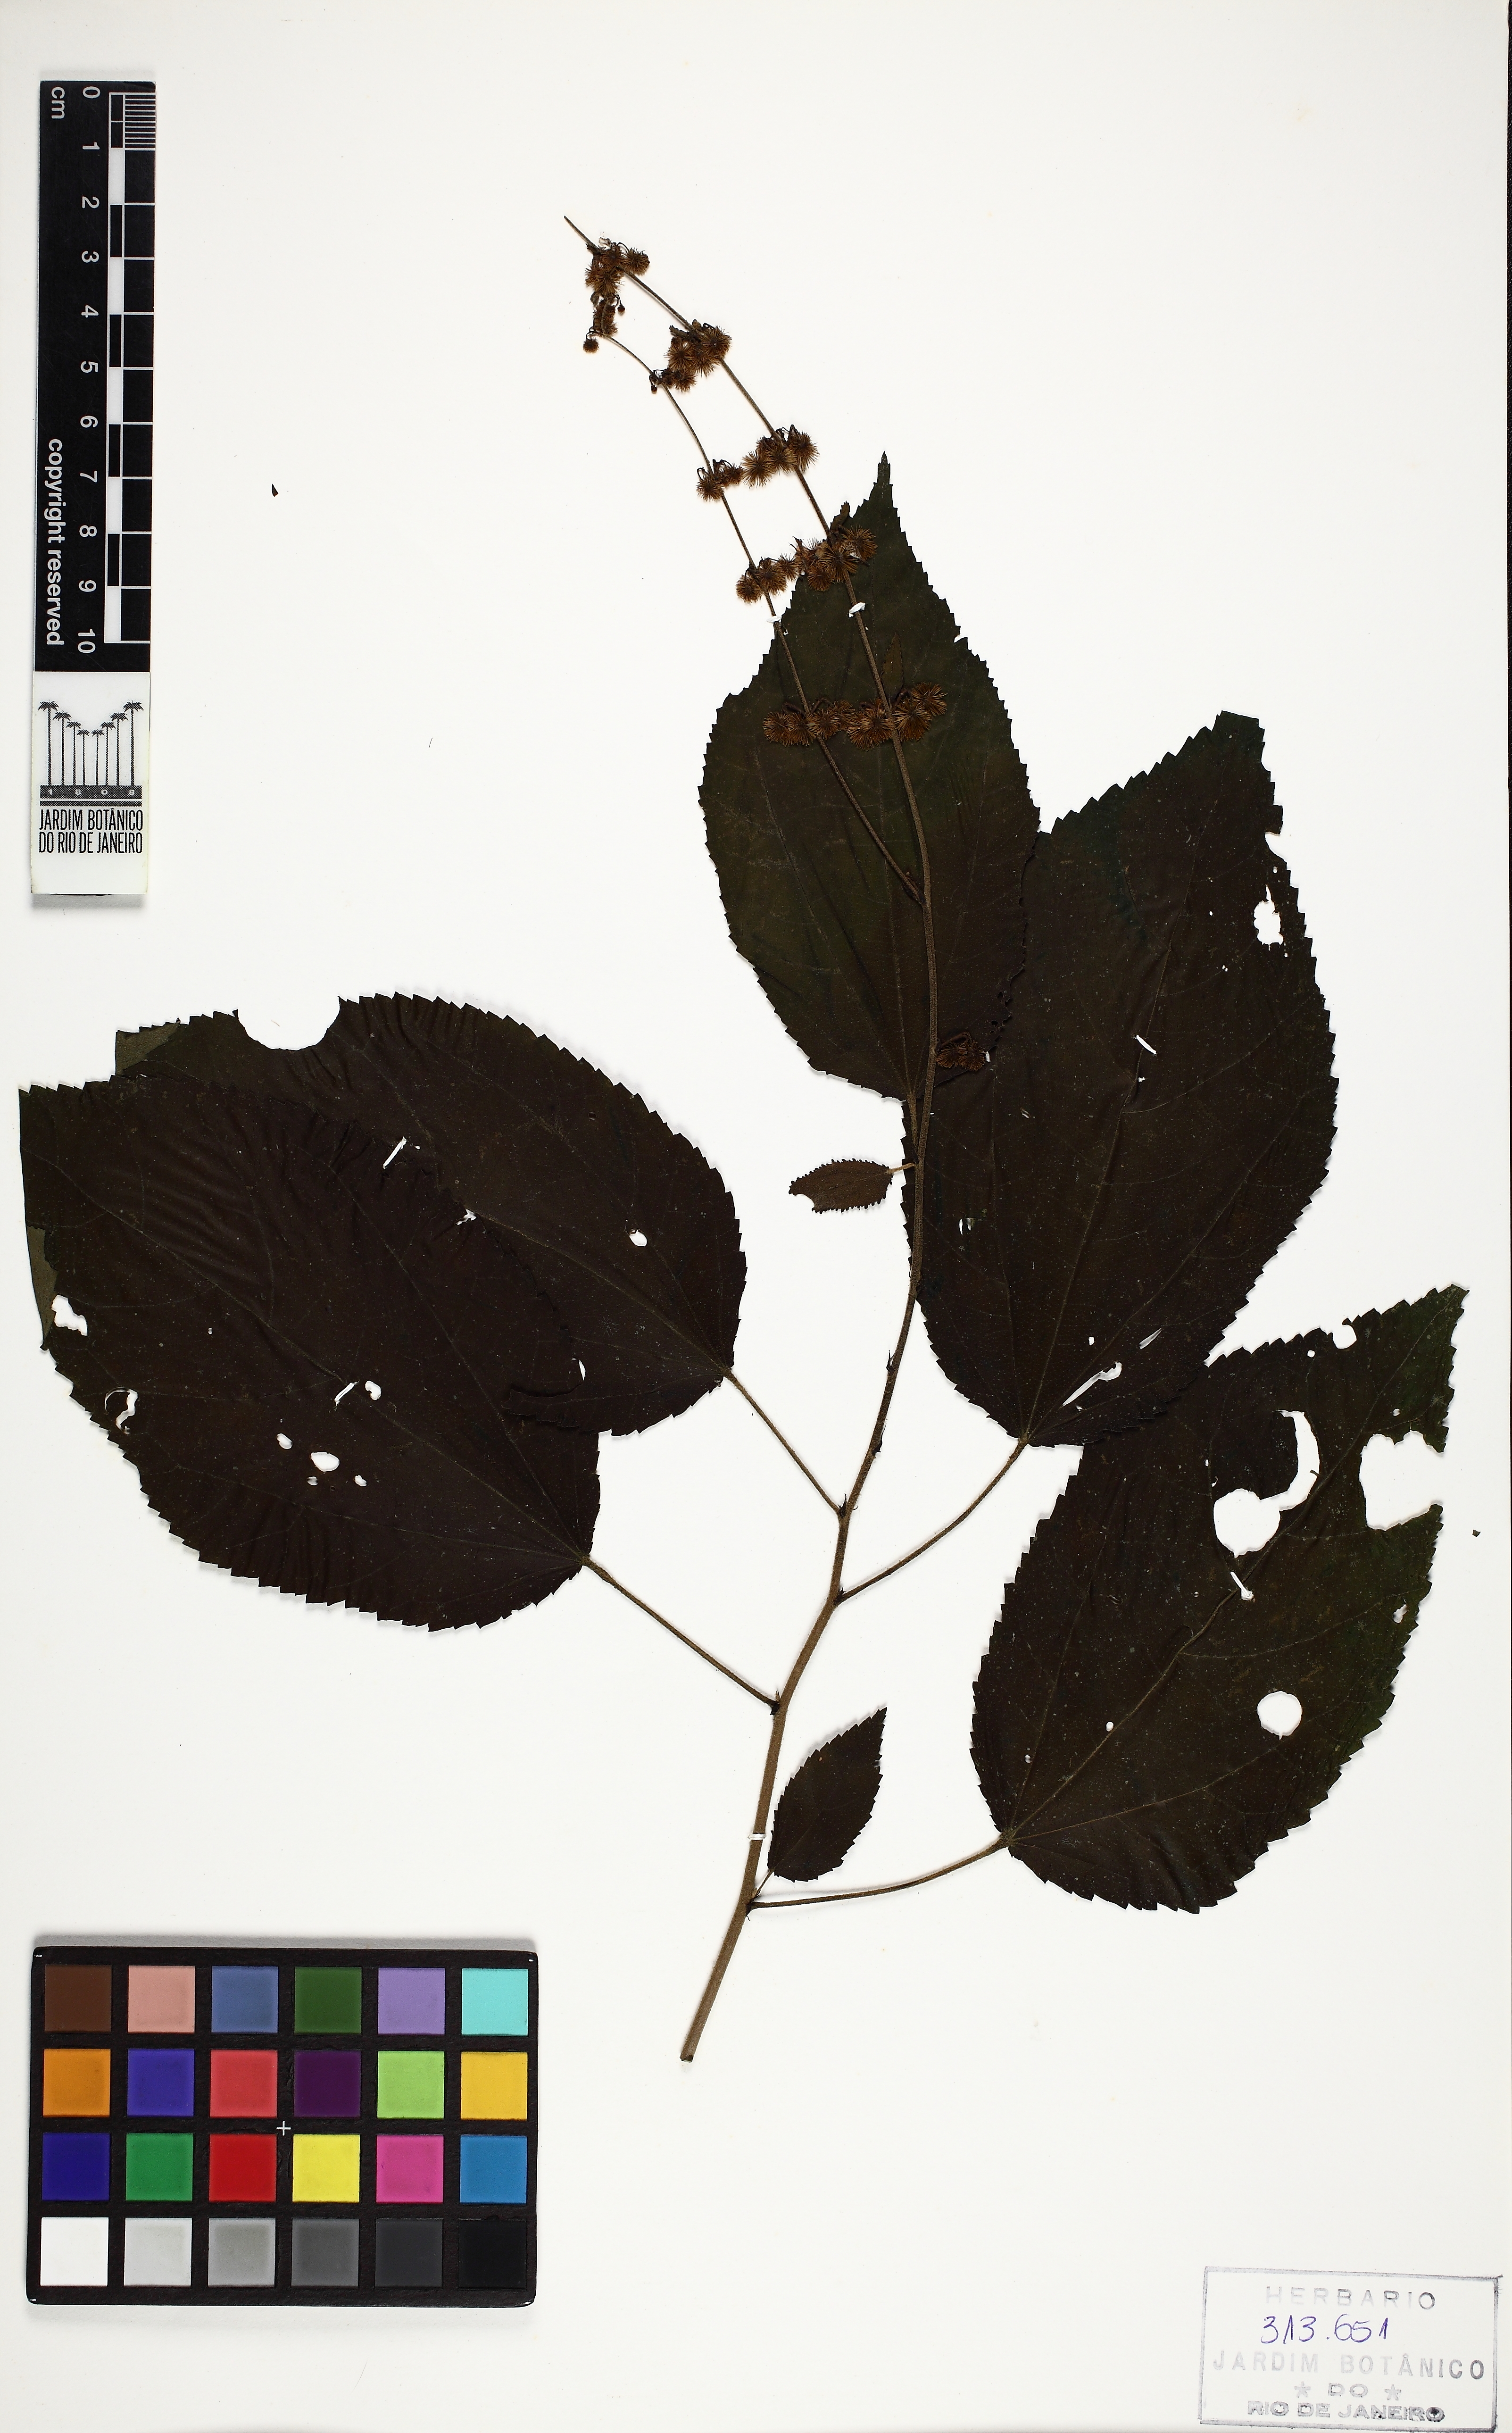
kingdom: Plantae
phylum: Tracheophyta
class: Magnoliopsida
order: Malvales
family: Malvaceae
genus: Triumfetta
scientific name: Triumfetta rhomboidea
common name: Diamond burbark
